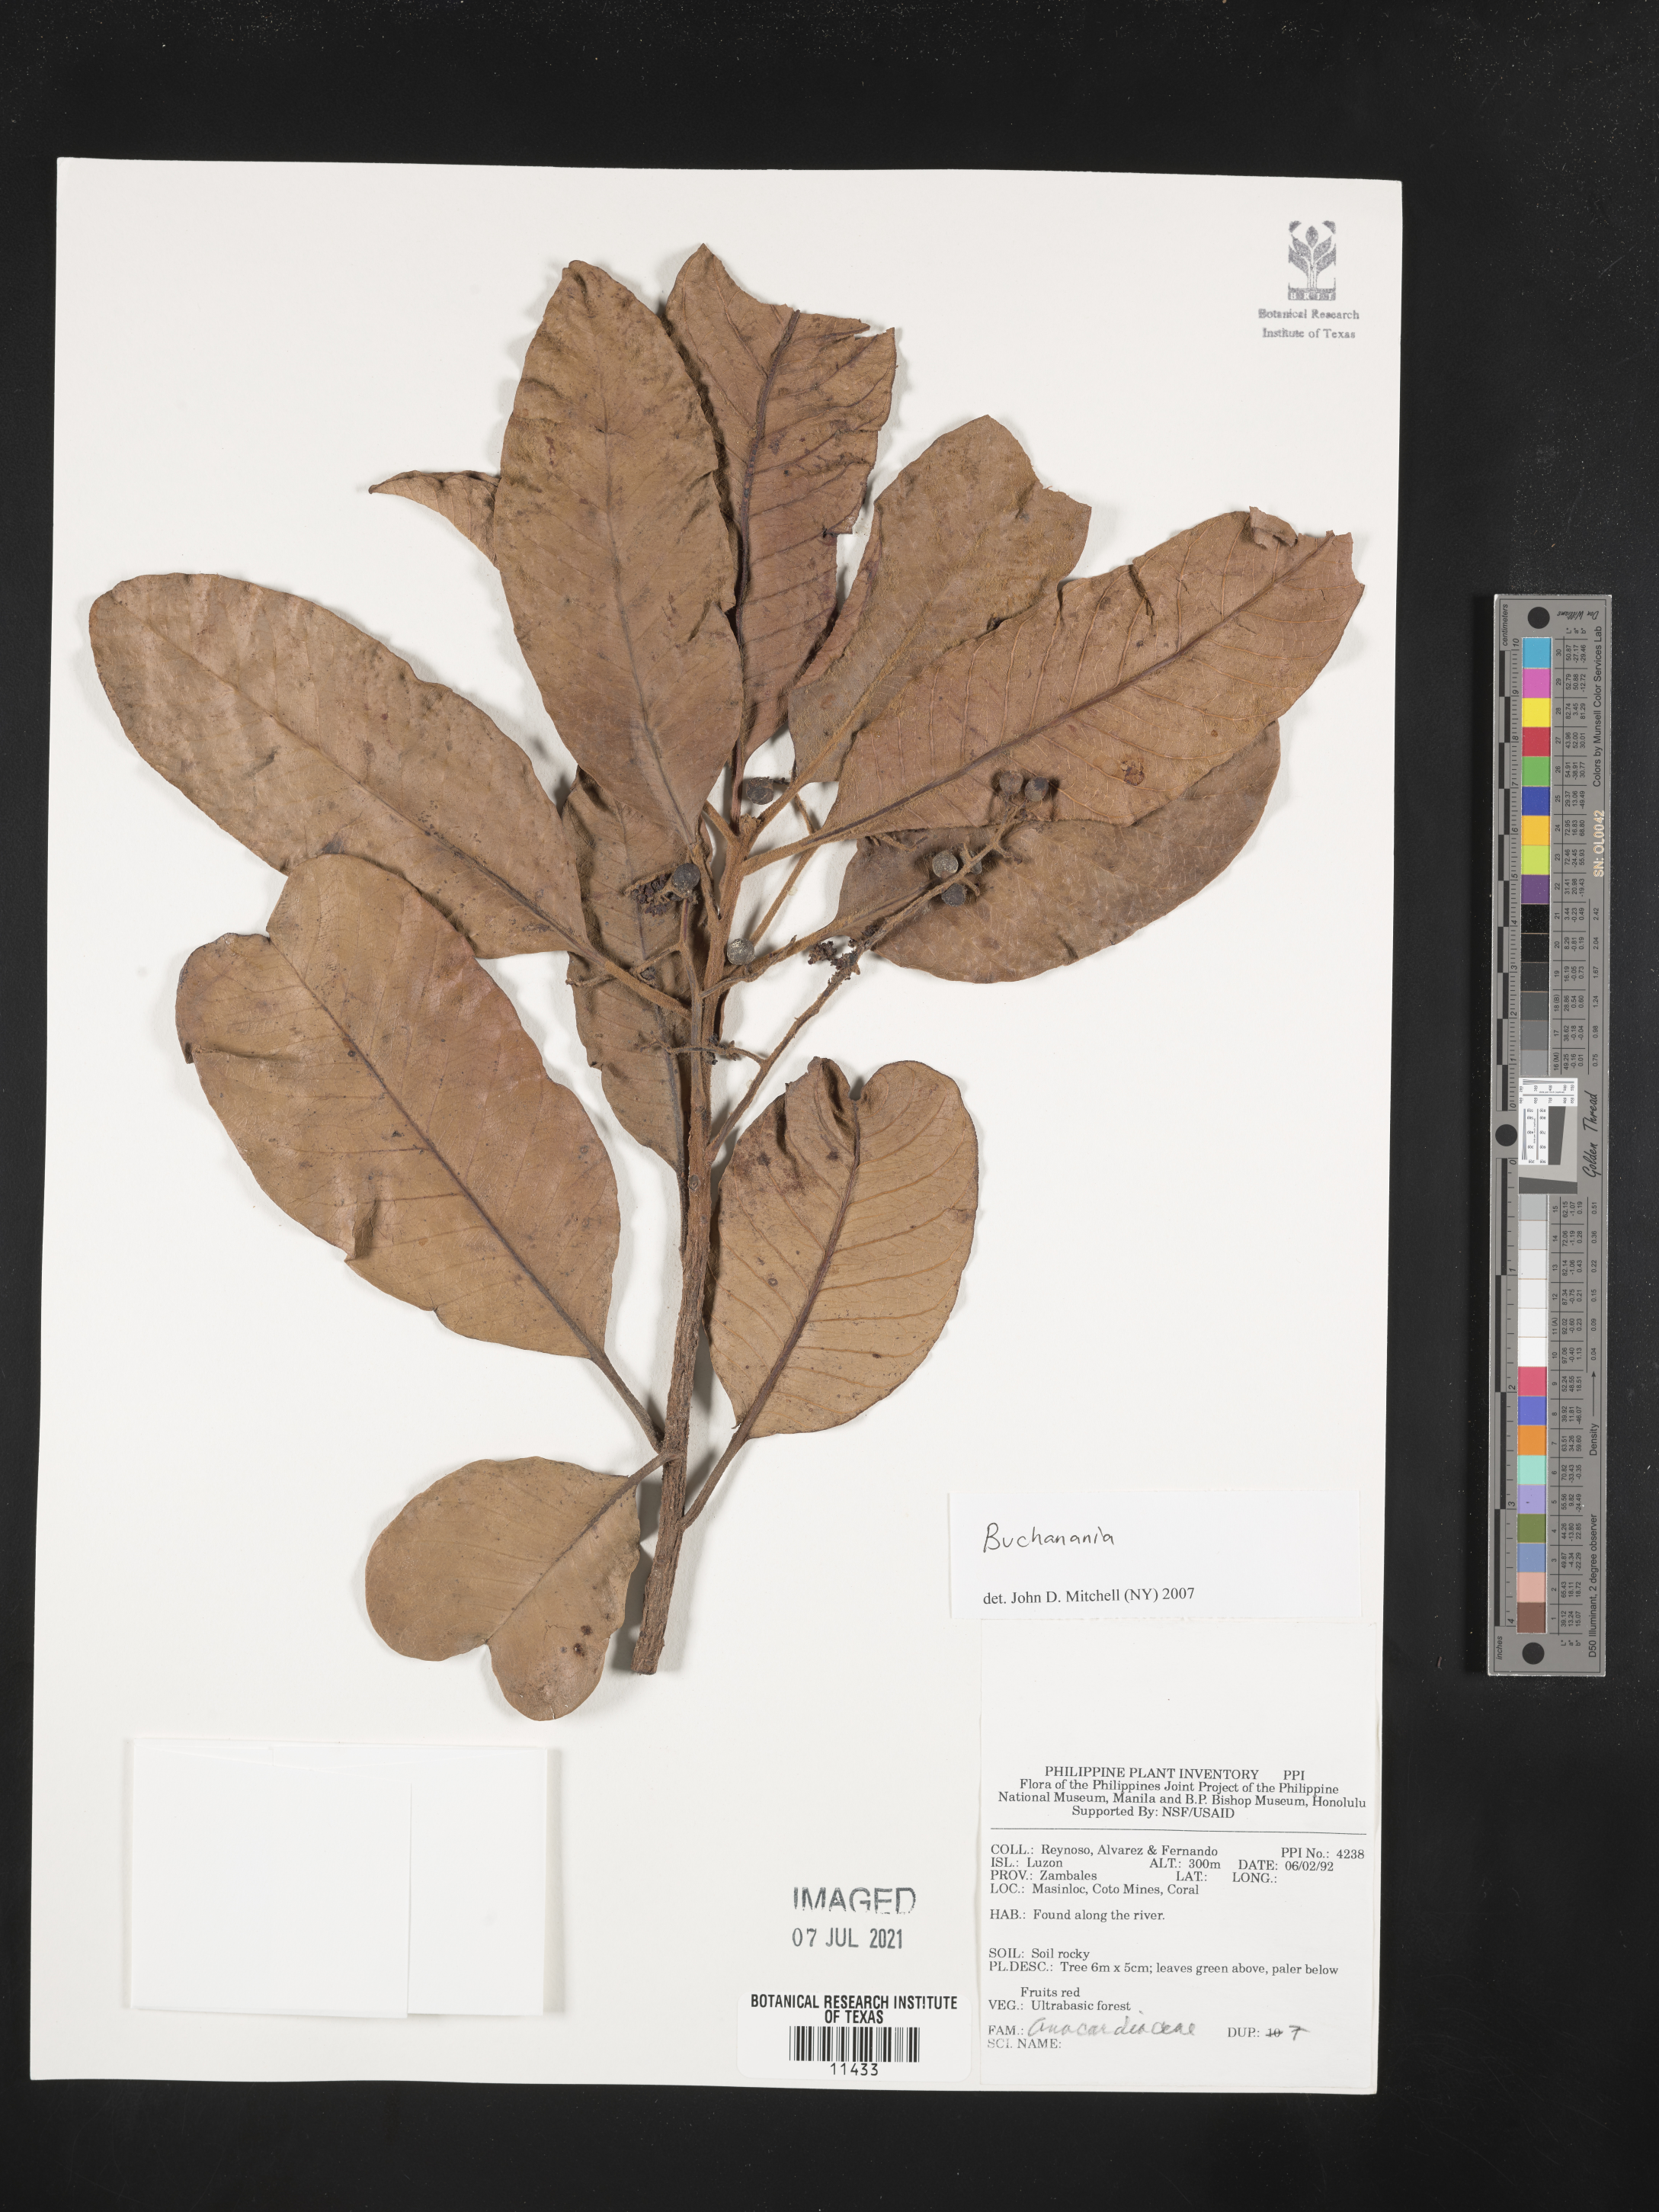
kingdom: Plantae
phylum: Tracheophyta
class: Magnoliopsida
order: Sapindales
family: Anacardiaceae
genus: Buchanania
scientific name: Buchanania
